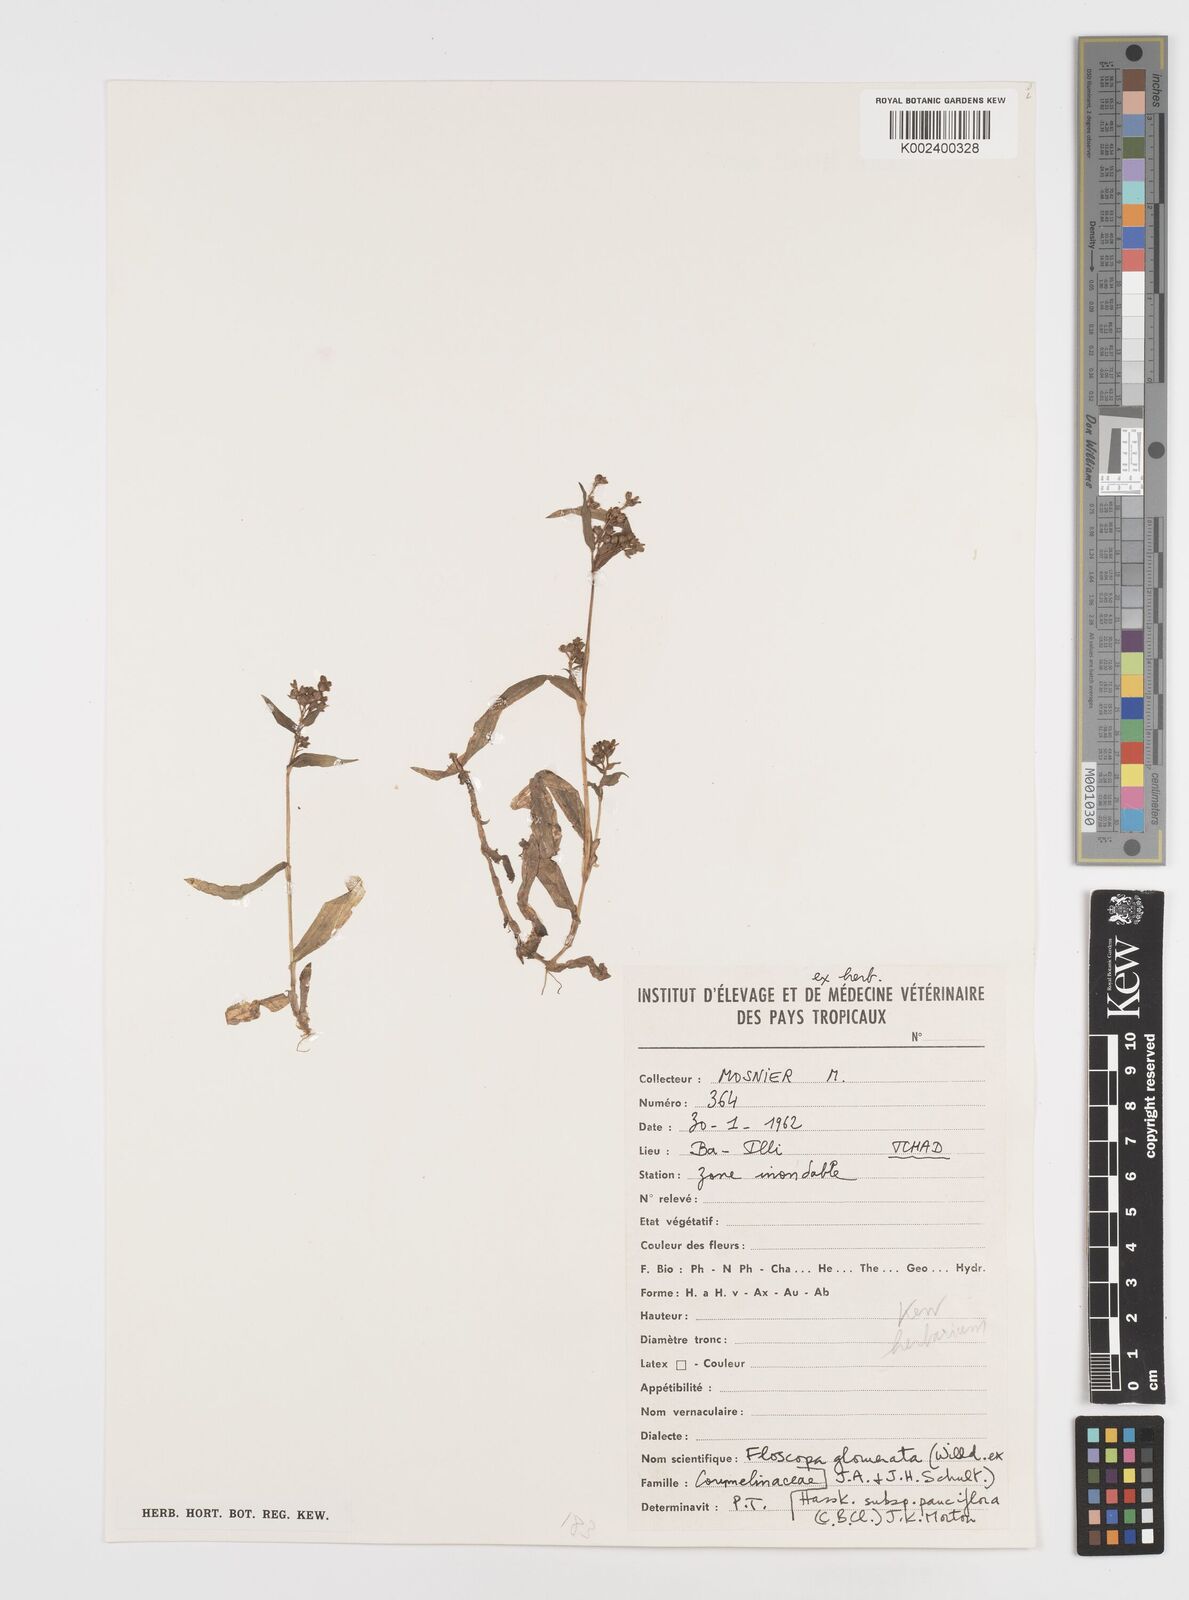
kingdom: Plantae
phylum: Tracheophyta
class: Liliopsida
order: Commelinales
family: Commelinaceae
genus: Floscopa
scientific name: Floscopa glomerata
